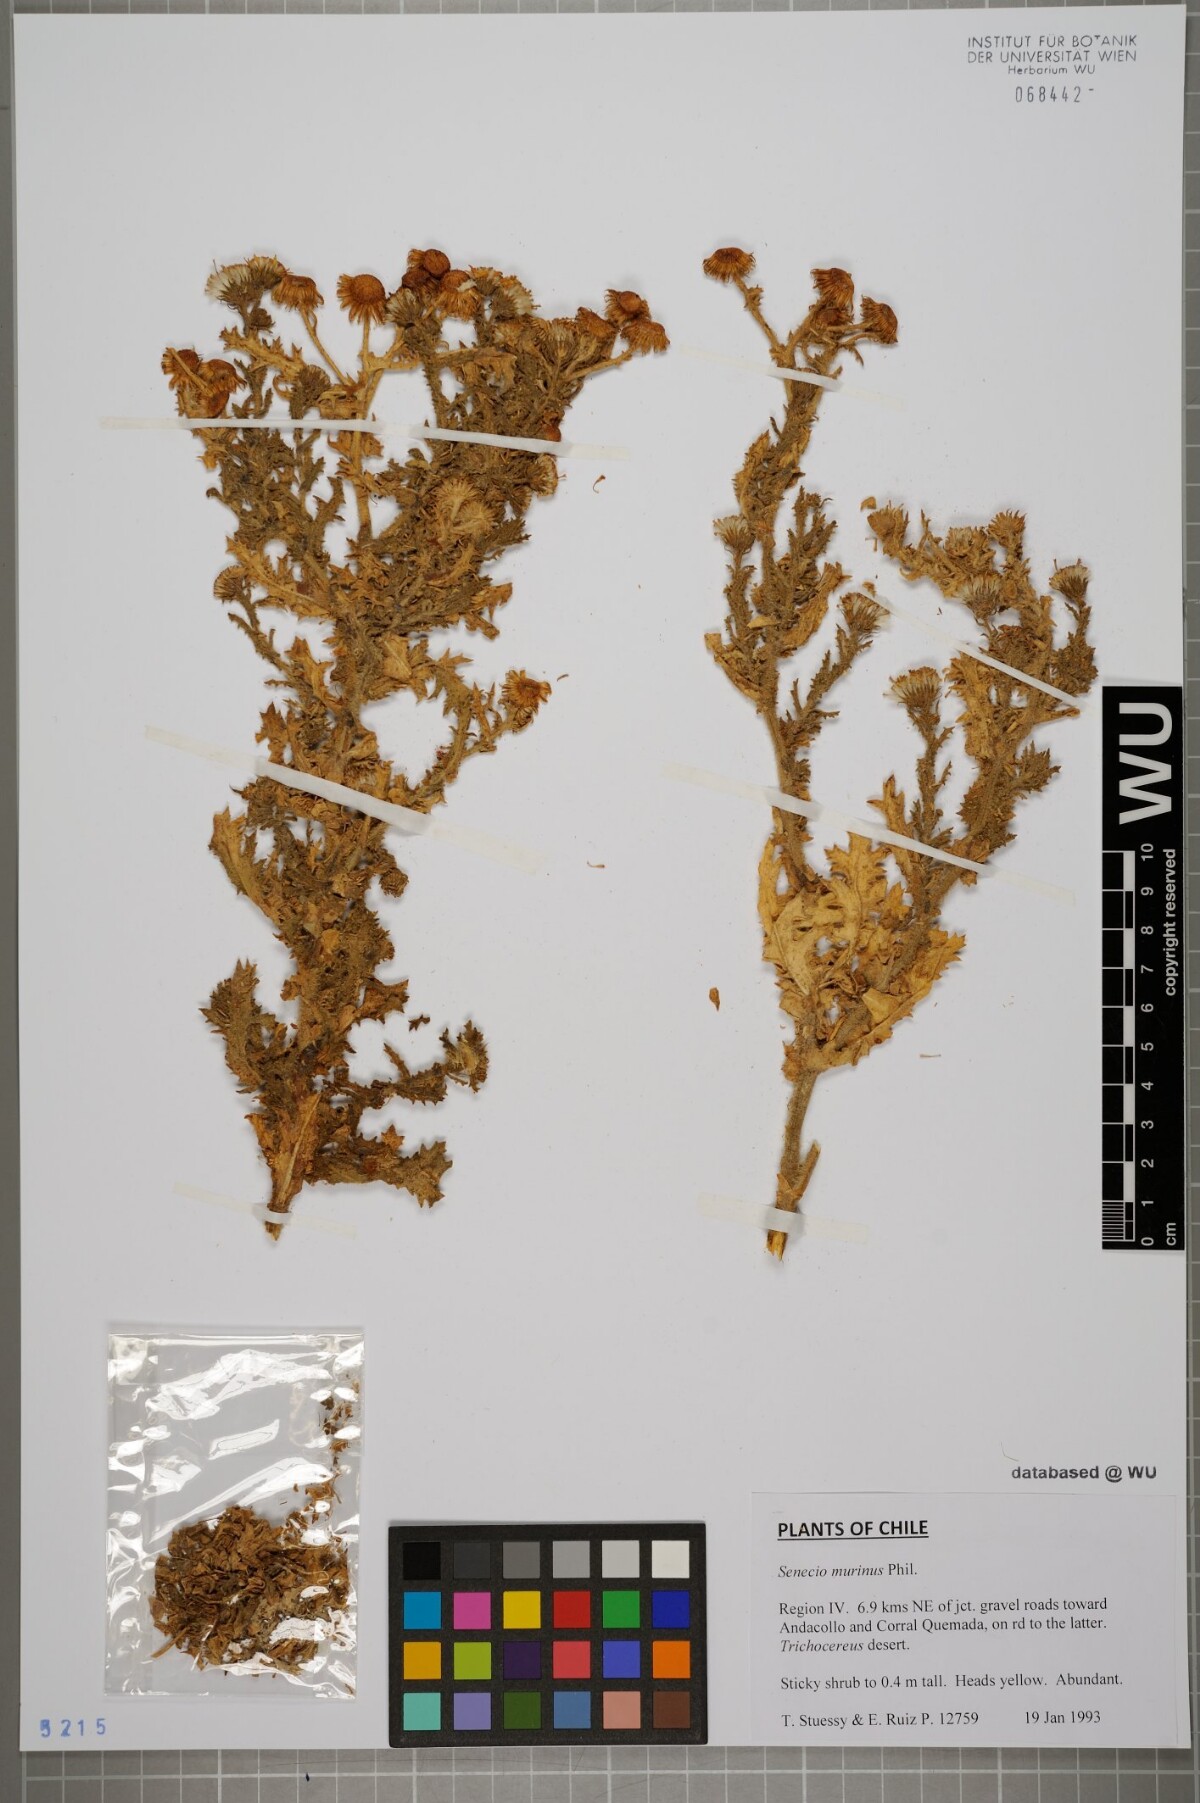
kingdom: Plantae
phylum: Tracheophyta
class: Magnoliopsida
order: Asterales
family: Asteraceae
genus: Senecio
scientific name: Senecio murinus
